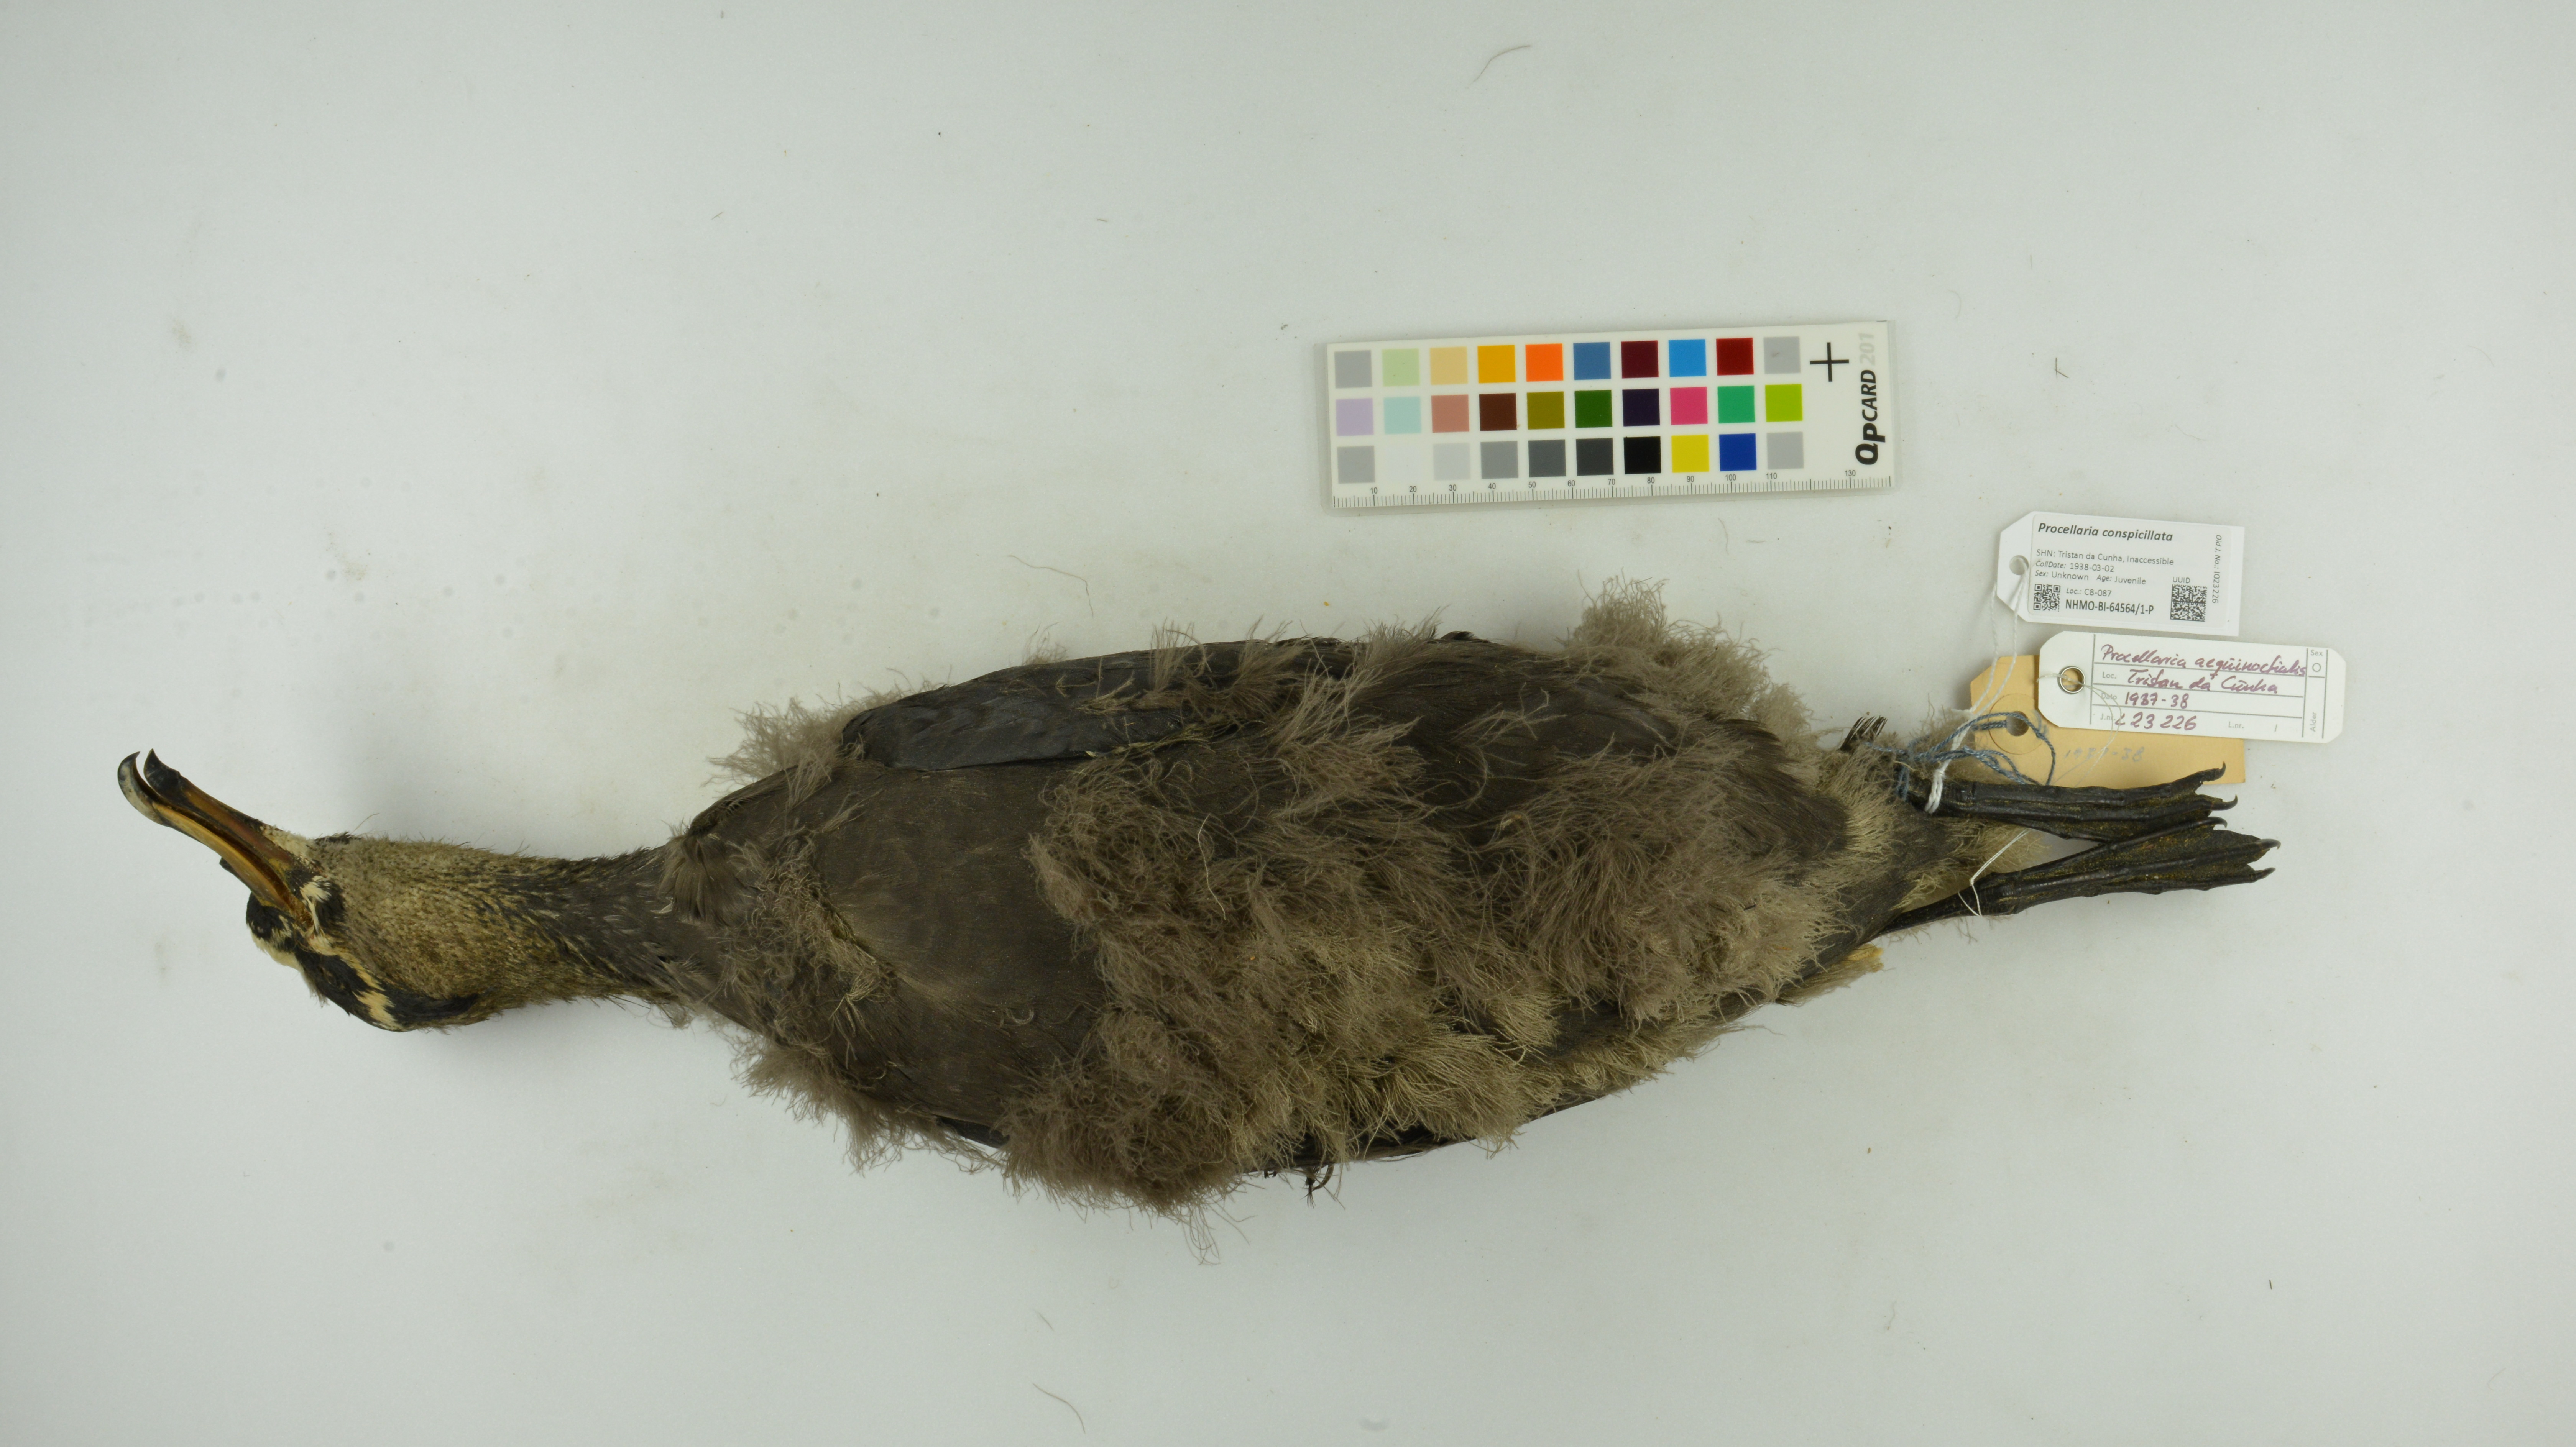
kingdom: Animalia
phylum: Chordata
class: Aves
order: Procellariiformes
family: Procellariidae
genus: Procellaria
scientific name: Procellaria conspicillata
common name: Spectacled petrel
